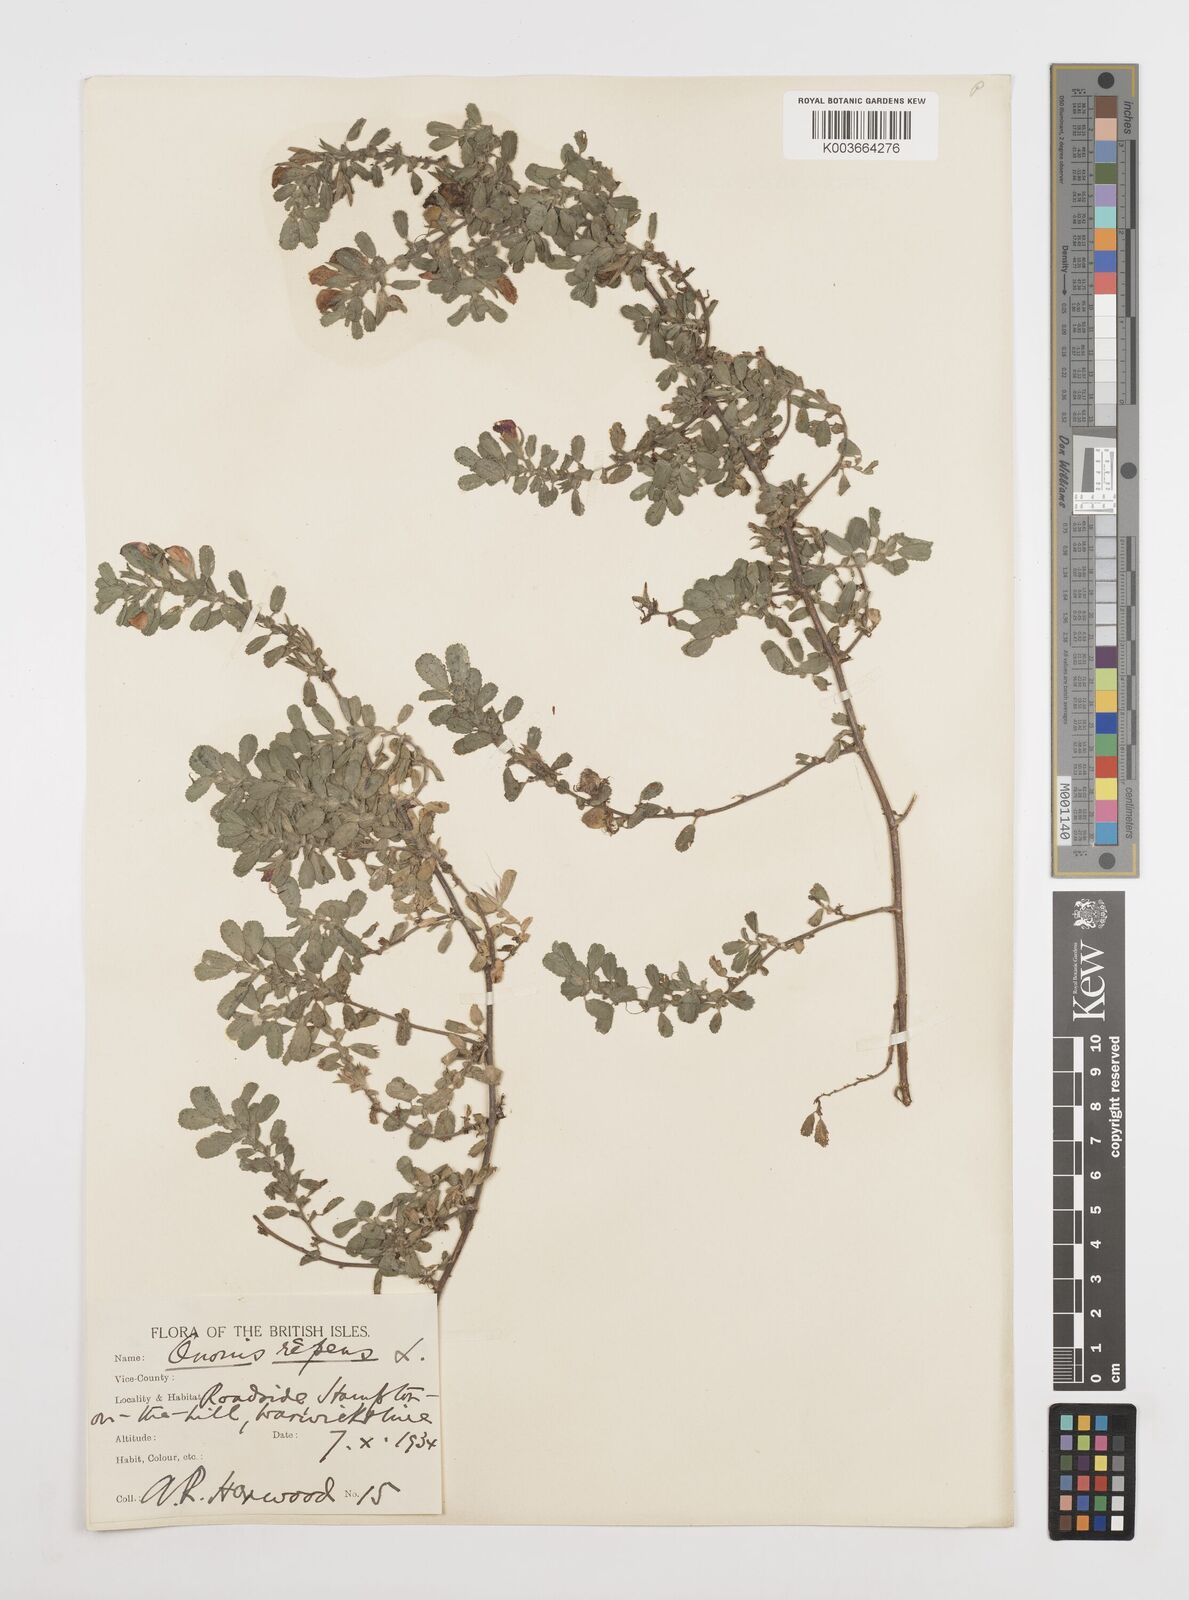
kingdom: Plantae
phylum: Tracheophyta
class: Magnoliopsida
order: Fabales
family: Fabaceae
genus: Ononis
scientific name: Ononis spinosa
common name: Spiny restharrow
